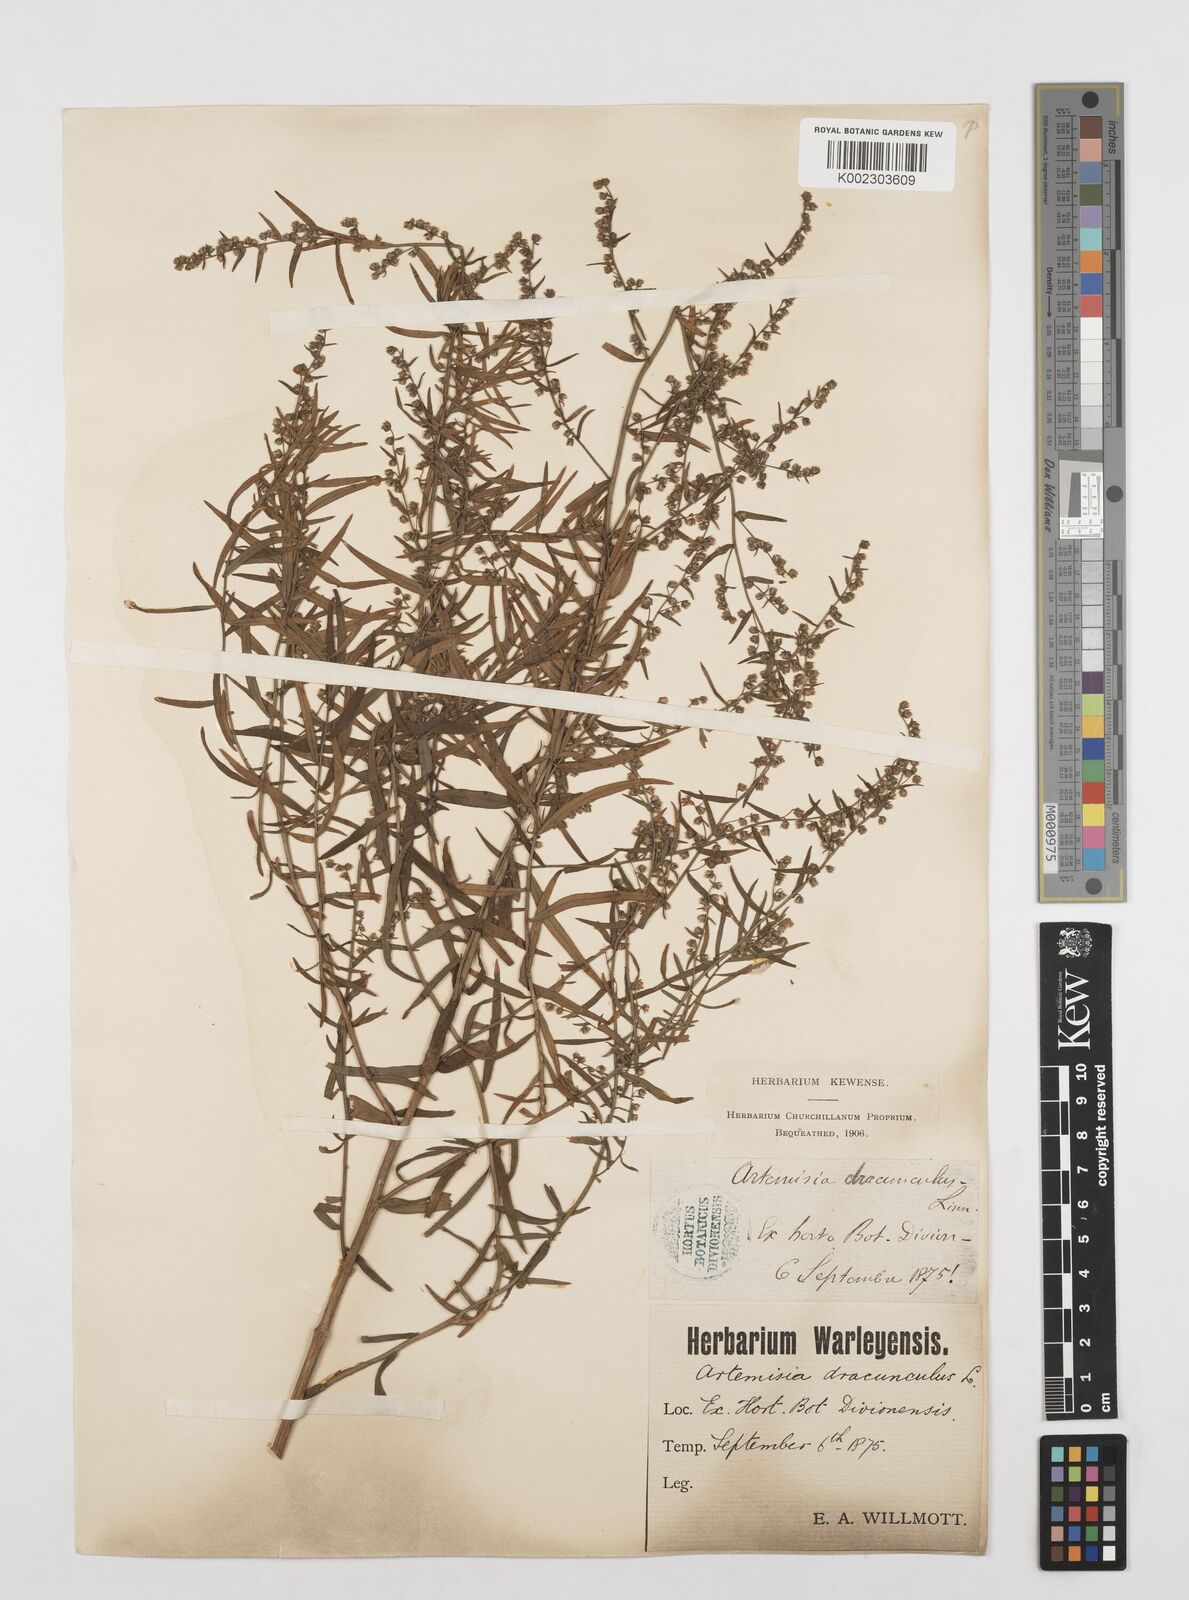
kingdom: Plantae
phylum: Tracheophyta
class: Magnoliopsida
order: Asterales
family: Asteraceae
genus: Artemisia
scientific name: Artemisia dracunculus
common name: Tarragon
